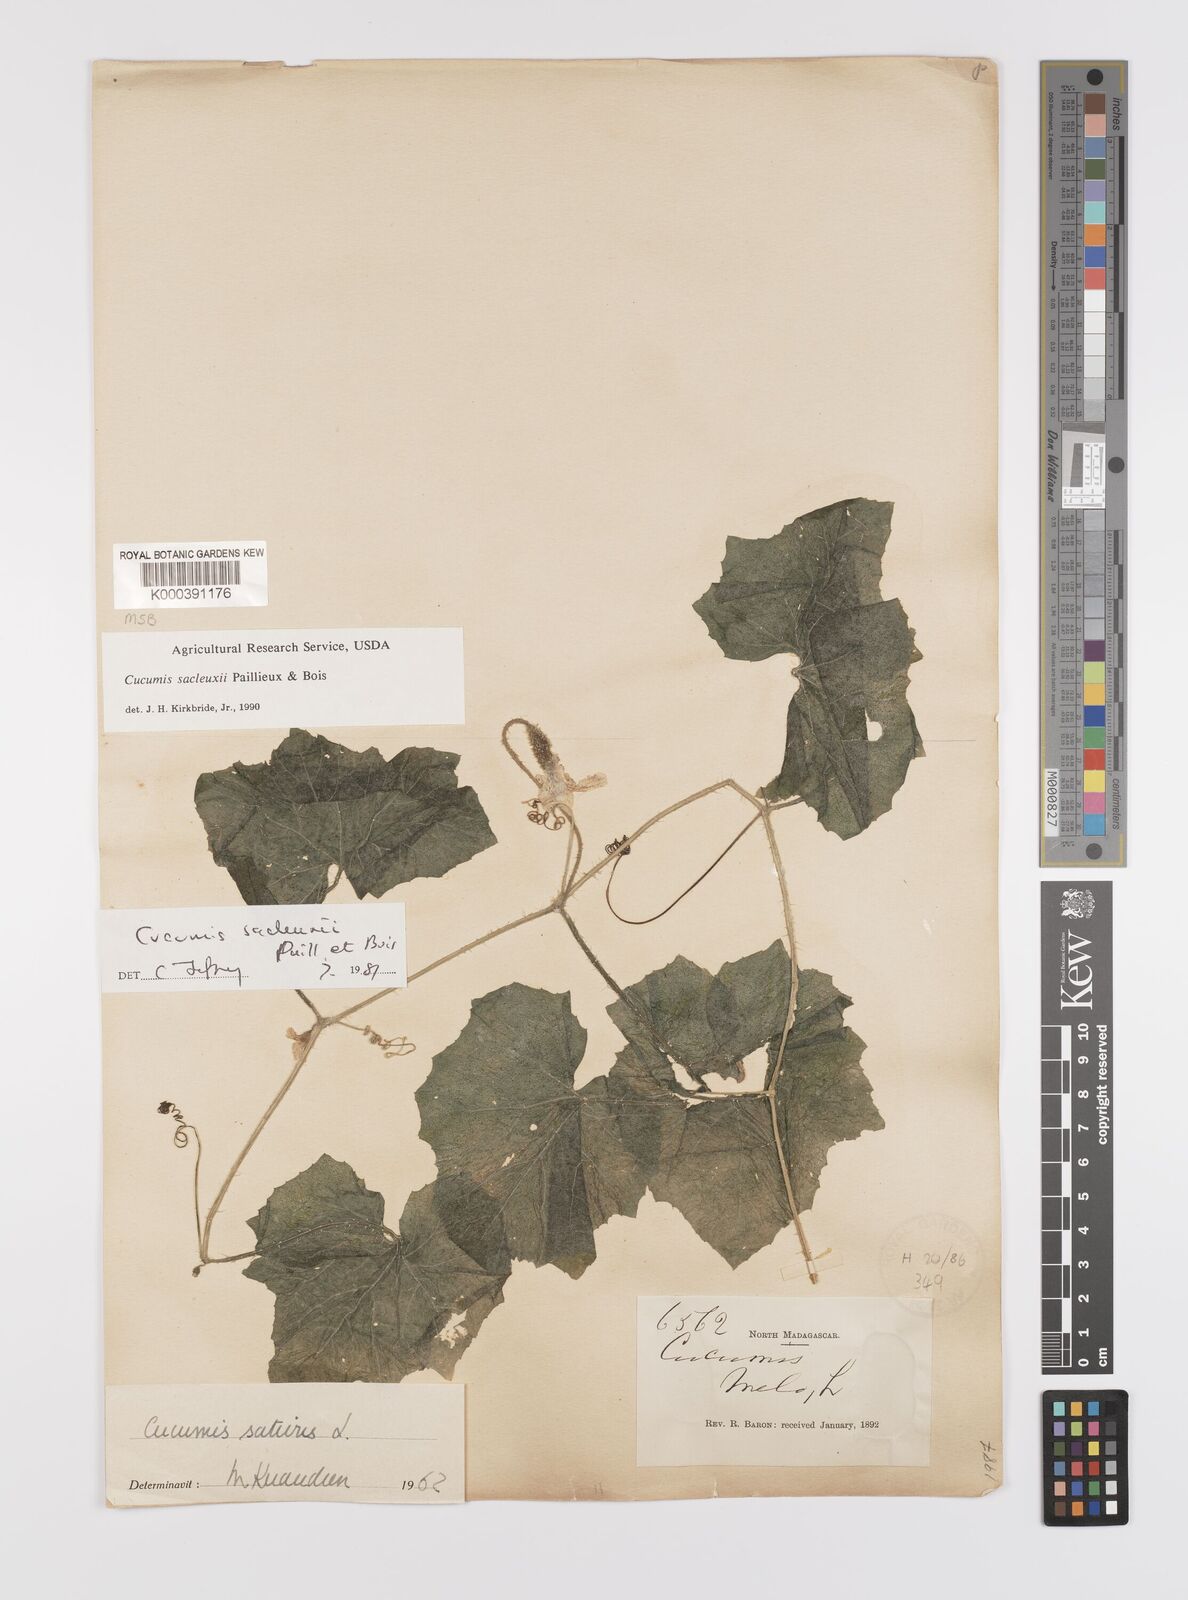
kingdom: Plantae
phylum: Tracheophyta
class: Magnoliopsida
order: Cucurbitales
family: Cucurbitaceae
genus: Cucumis
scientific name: Cucumis sacleuxii
